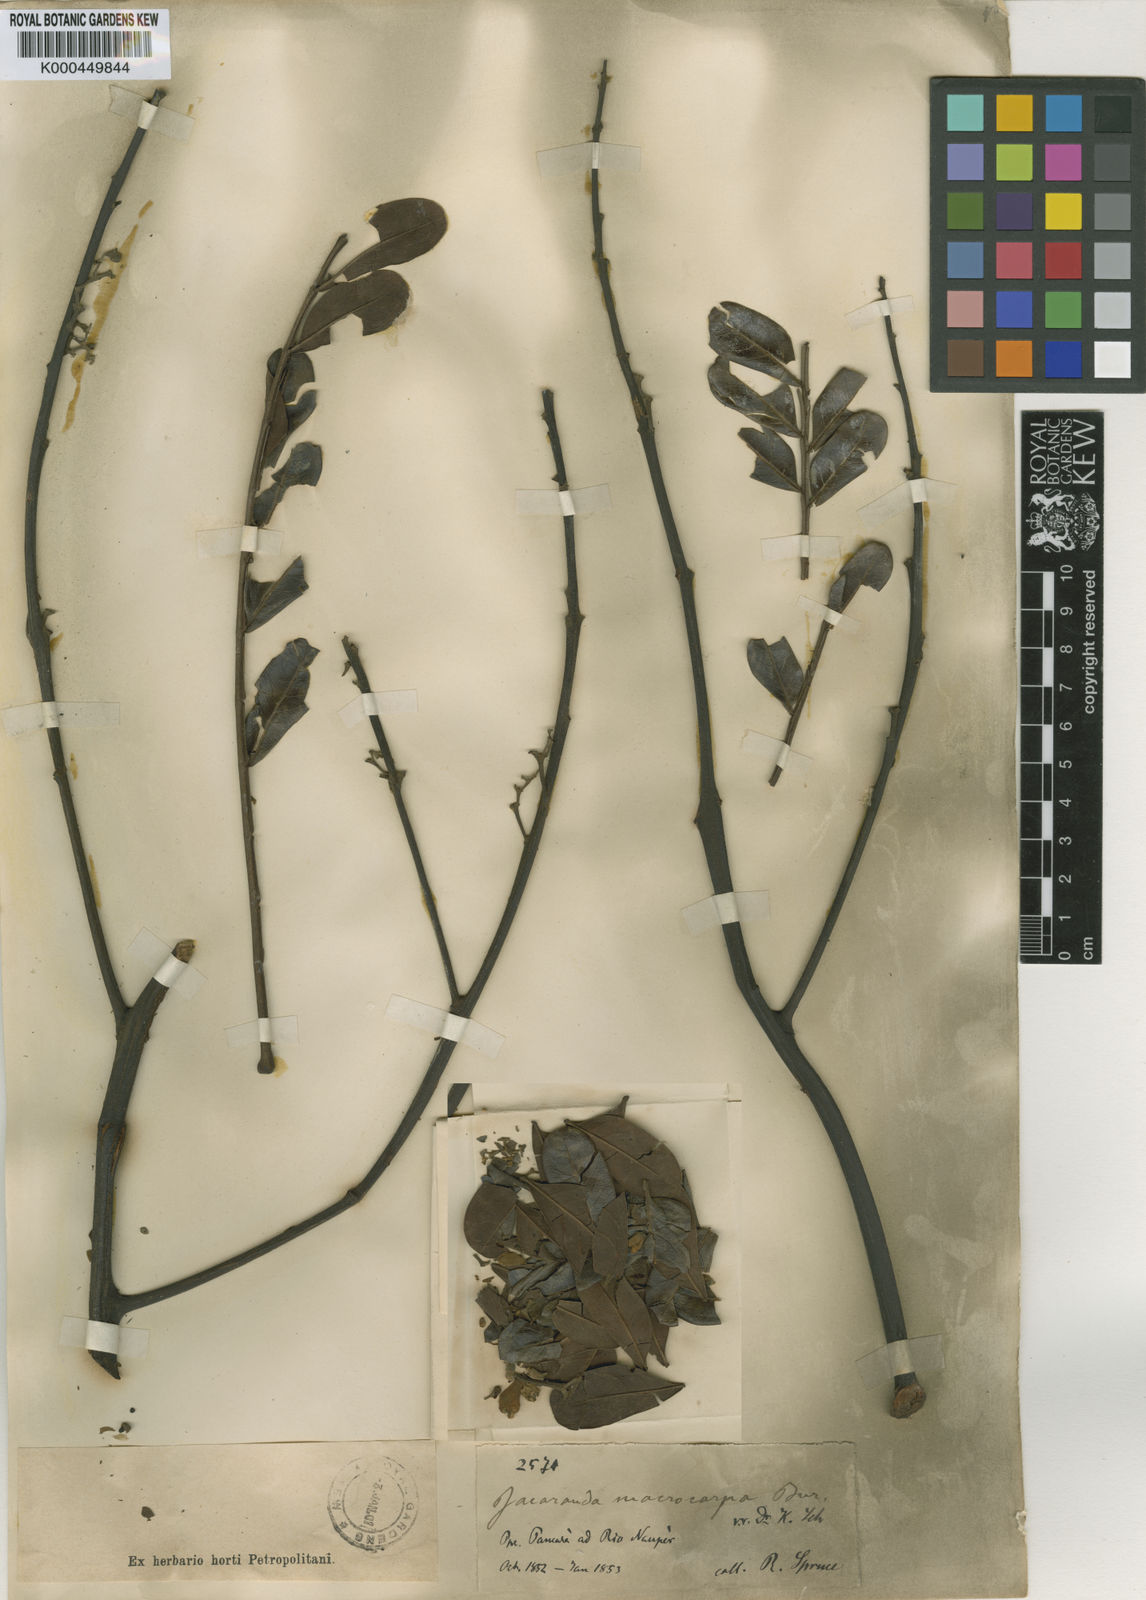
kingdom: Plantae
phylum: Tracheophyta
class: Magnoliopsida
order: Lamiales
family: Bignoniaceae
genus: Jacaranda
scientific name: Jacaranda macrocarpa
